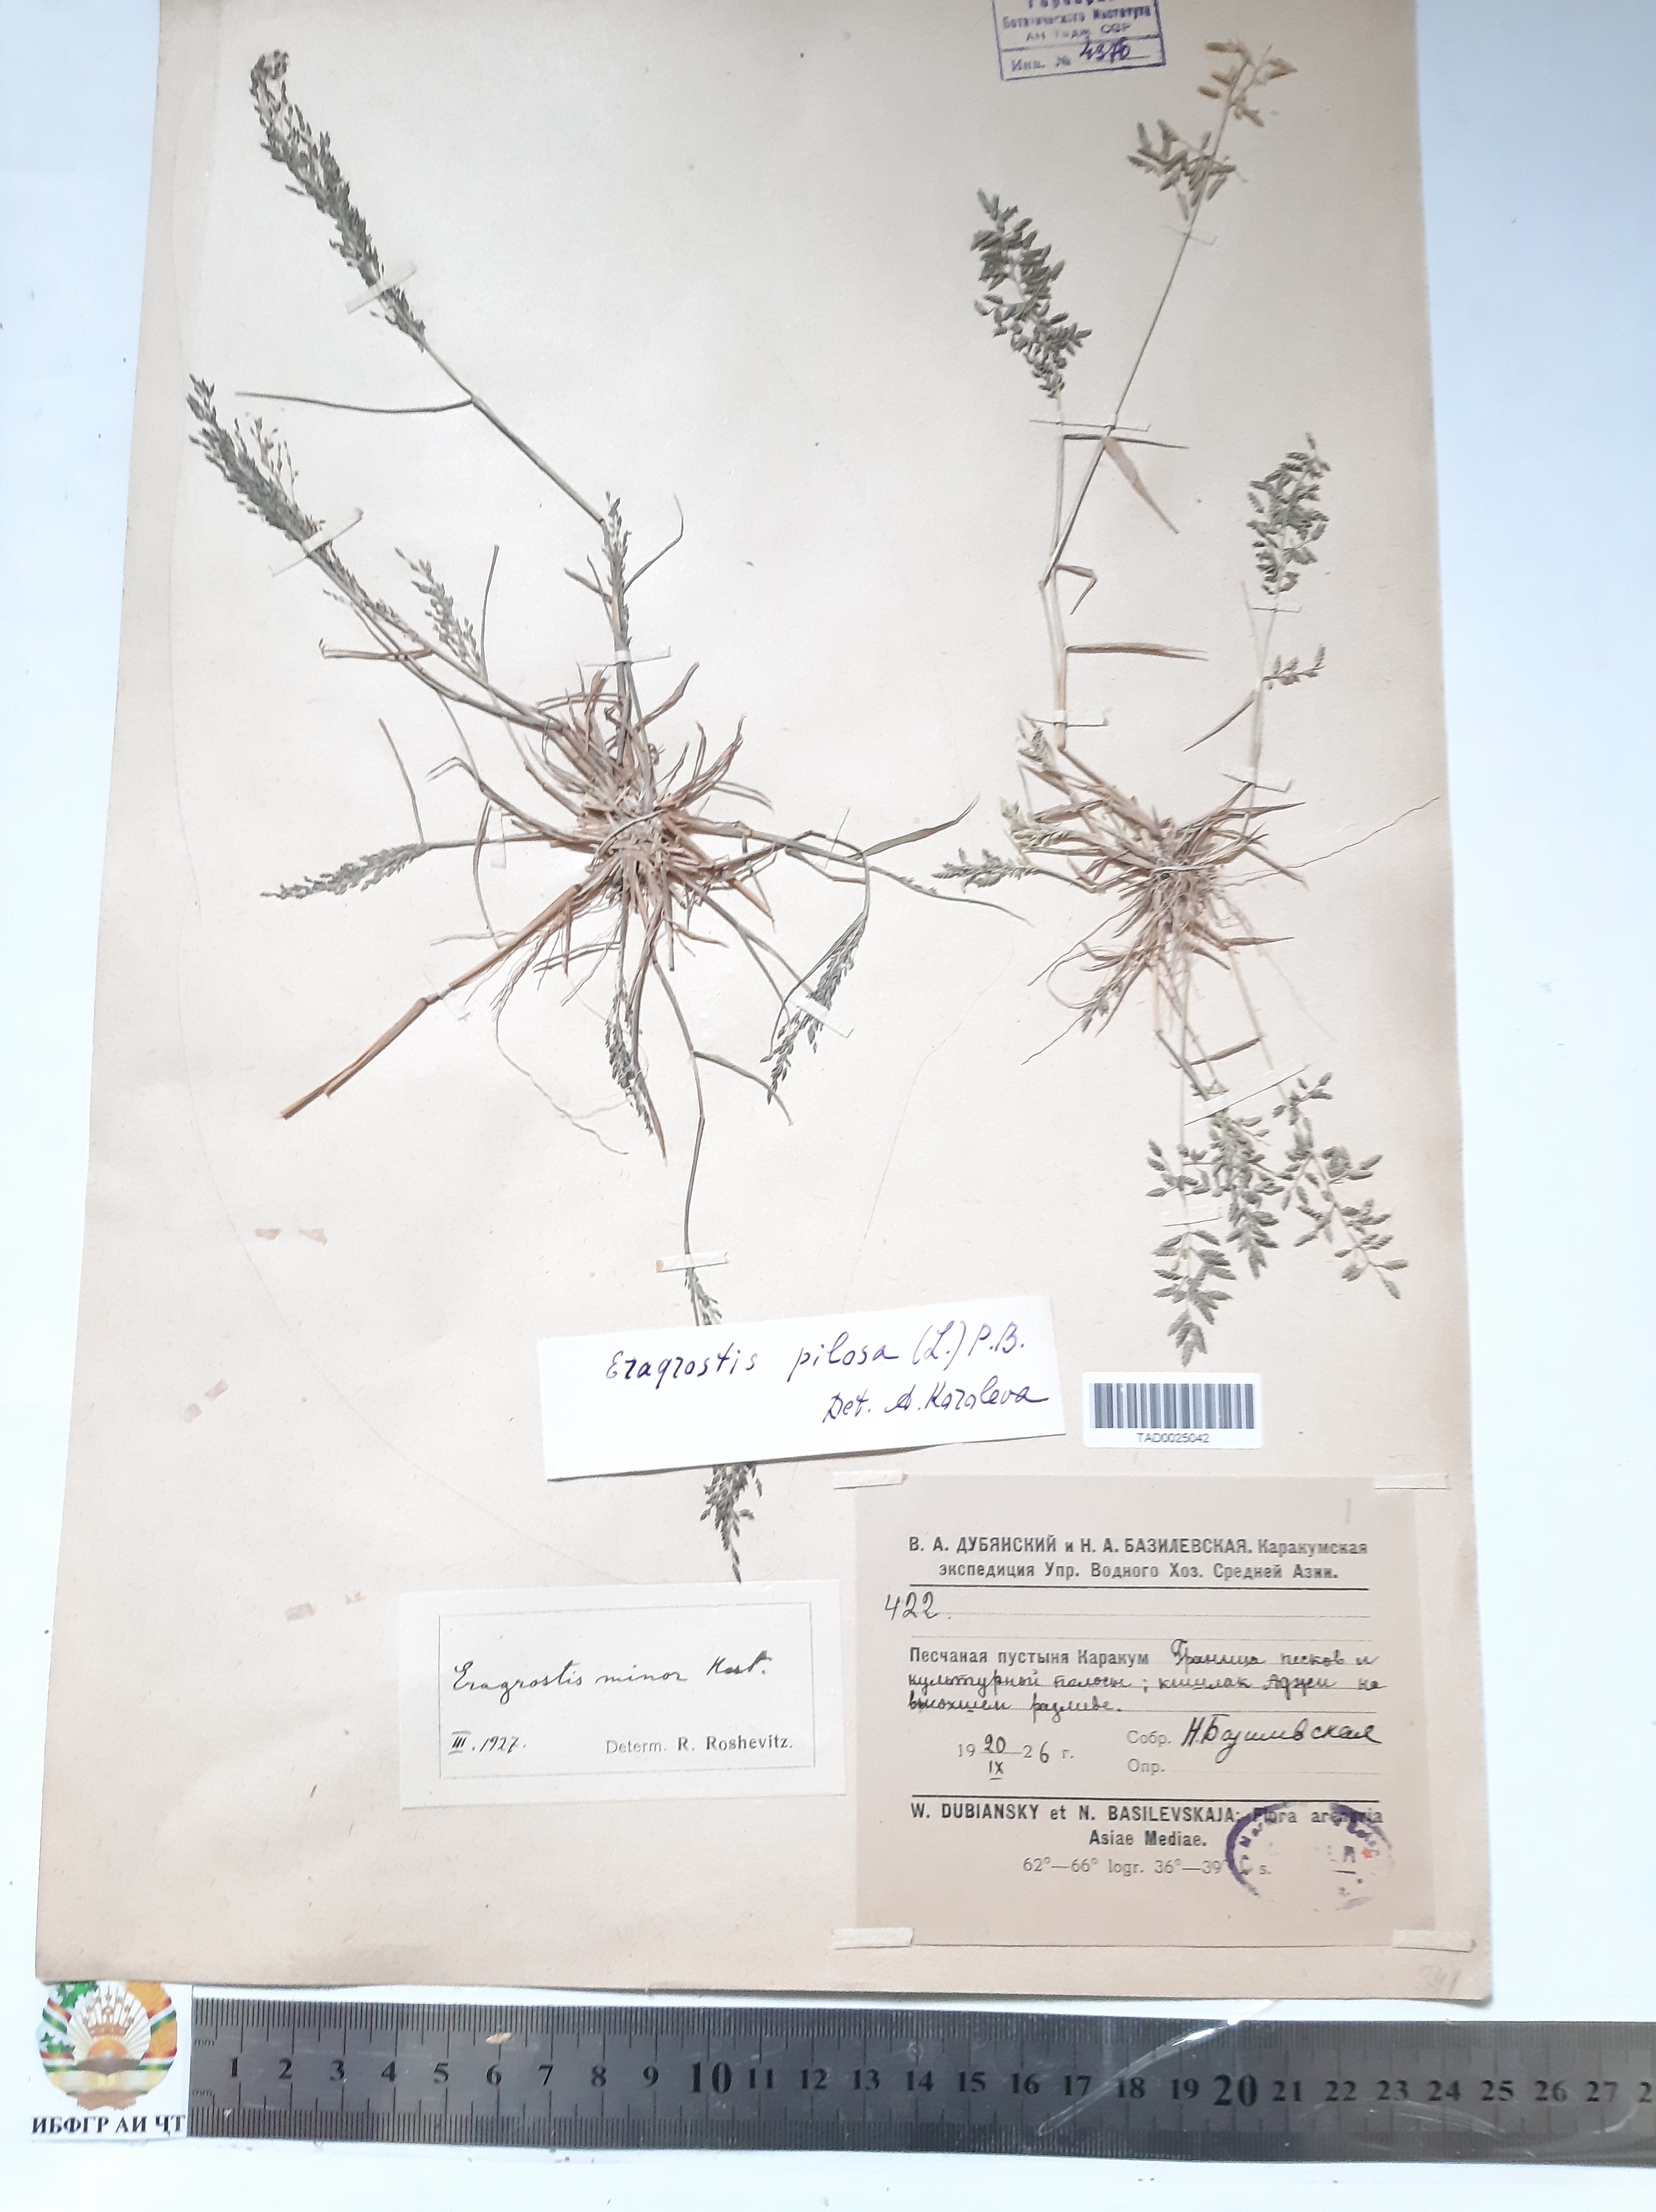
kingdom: Plantae
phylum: Tracheophyta
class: Liliopsida
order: Poales
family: Poaceae
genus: Eragrostis
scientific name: Eragrostis pilosa
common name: Indian lovegrass
